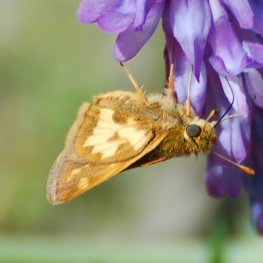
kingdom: Animalia
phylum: Arthropoda
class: Insecta
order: Lepidoptera
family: Hesperiidae
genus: Polites
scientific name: Polites coras
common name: Peck's Skipper
